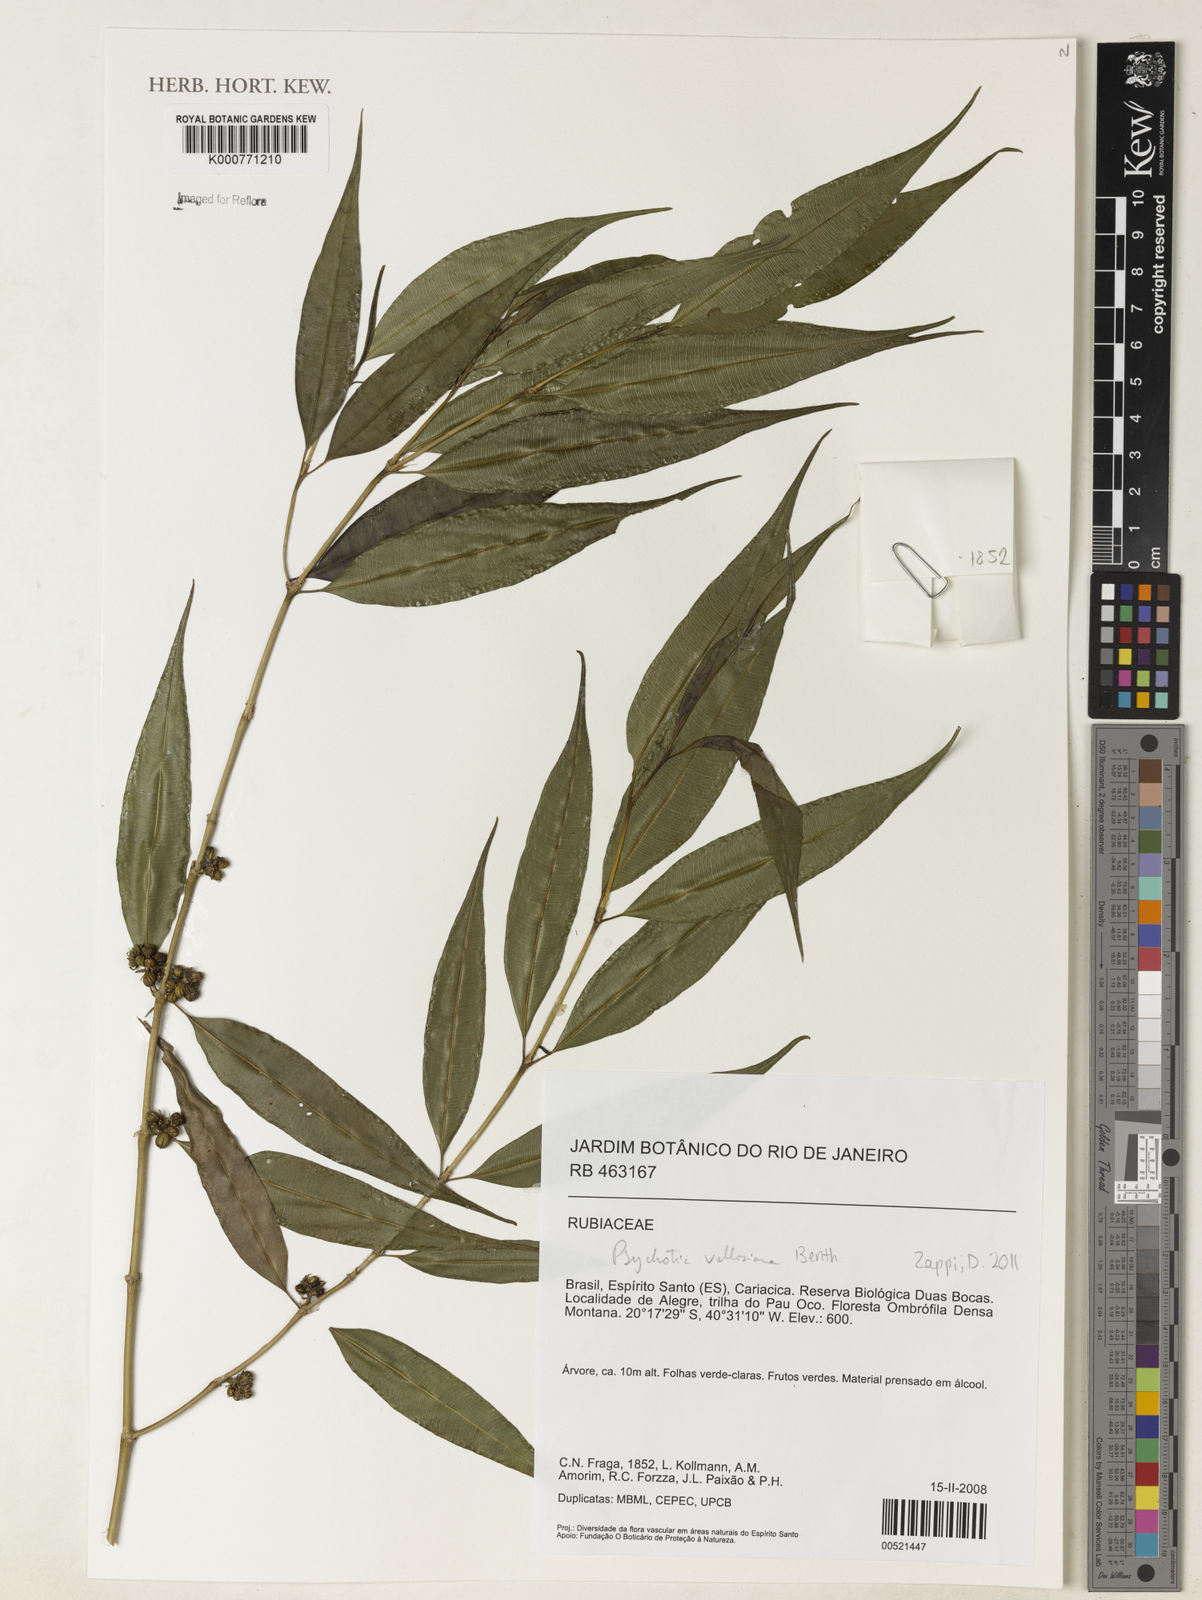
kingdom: Plantae
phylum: Tracheophyta
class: Magnoliopsida
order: Gentianales
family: Rubiaceae
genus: Palicourea
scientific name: Palicourea sessilis
